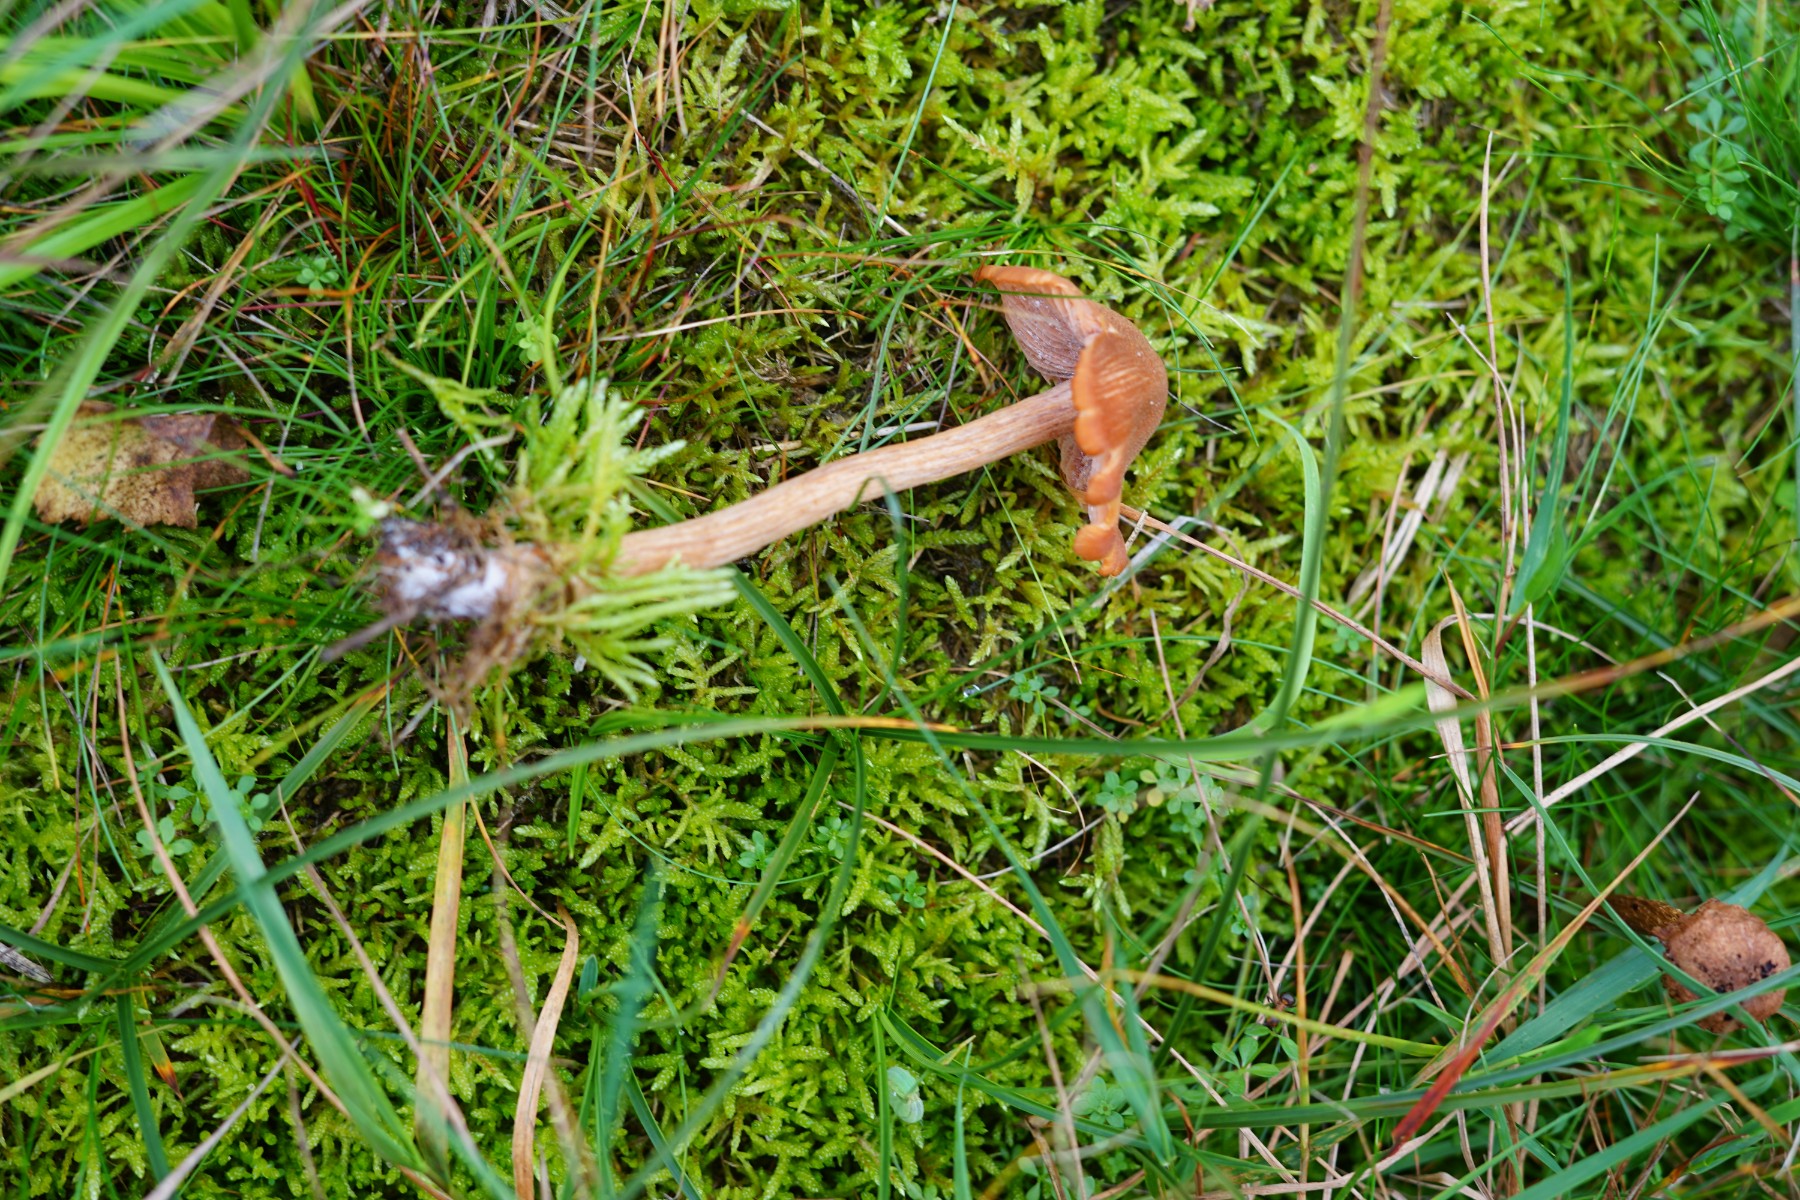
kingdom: Fungi
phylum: Basidiomycota
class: Agaricomycetes
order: Agaricales
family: Hydnangiaceae
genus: Laccaria
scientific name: Laccaria bicolor
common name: tvefarvet ametysthat
